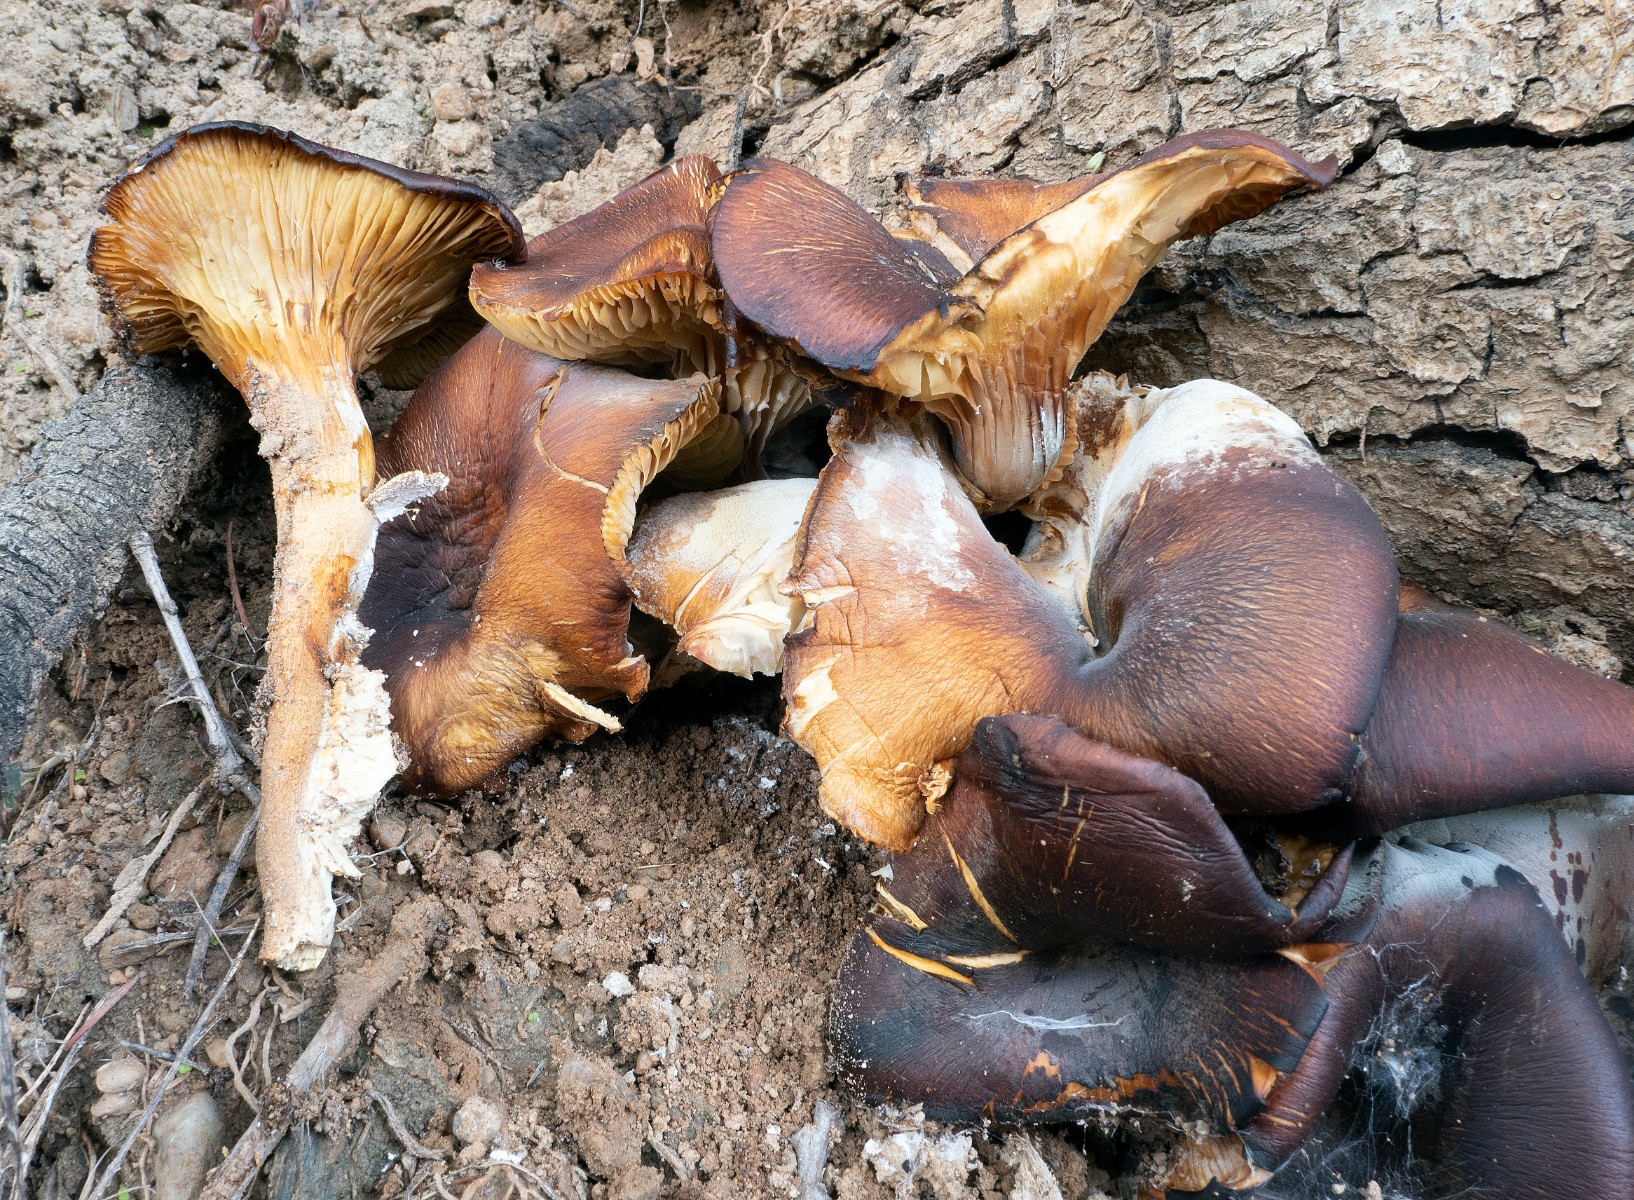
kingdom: Fungi
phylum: Basidiomycota
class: Agaricomycetes
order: Agaricales
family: Omphalotaceae
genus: Omphalotus
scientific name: Omphalotus olearius
